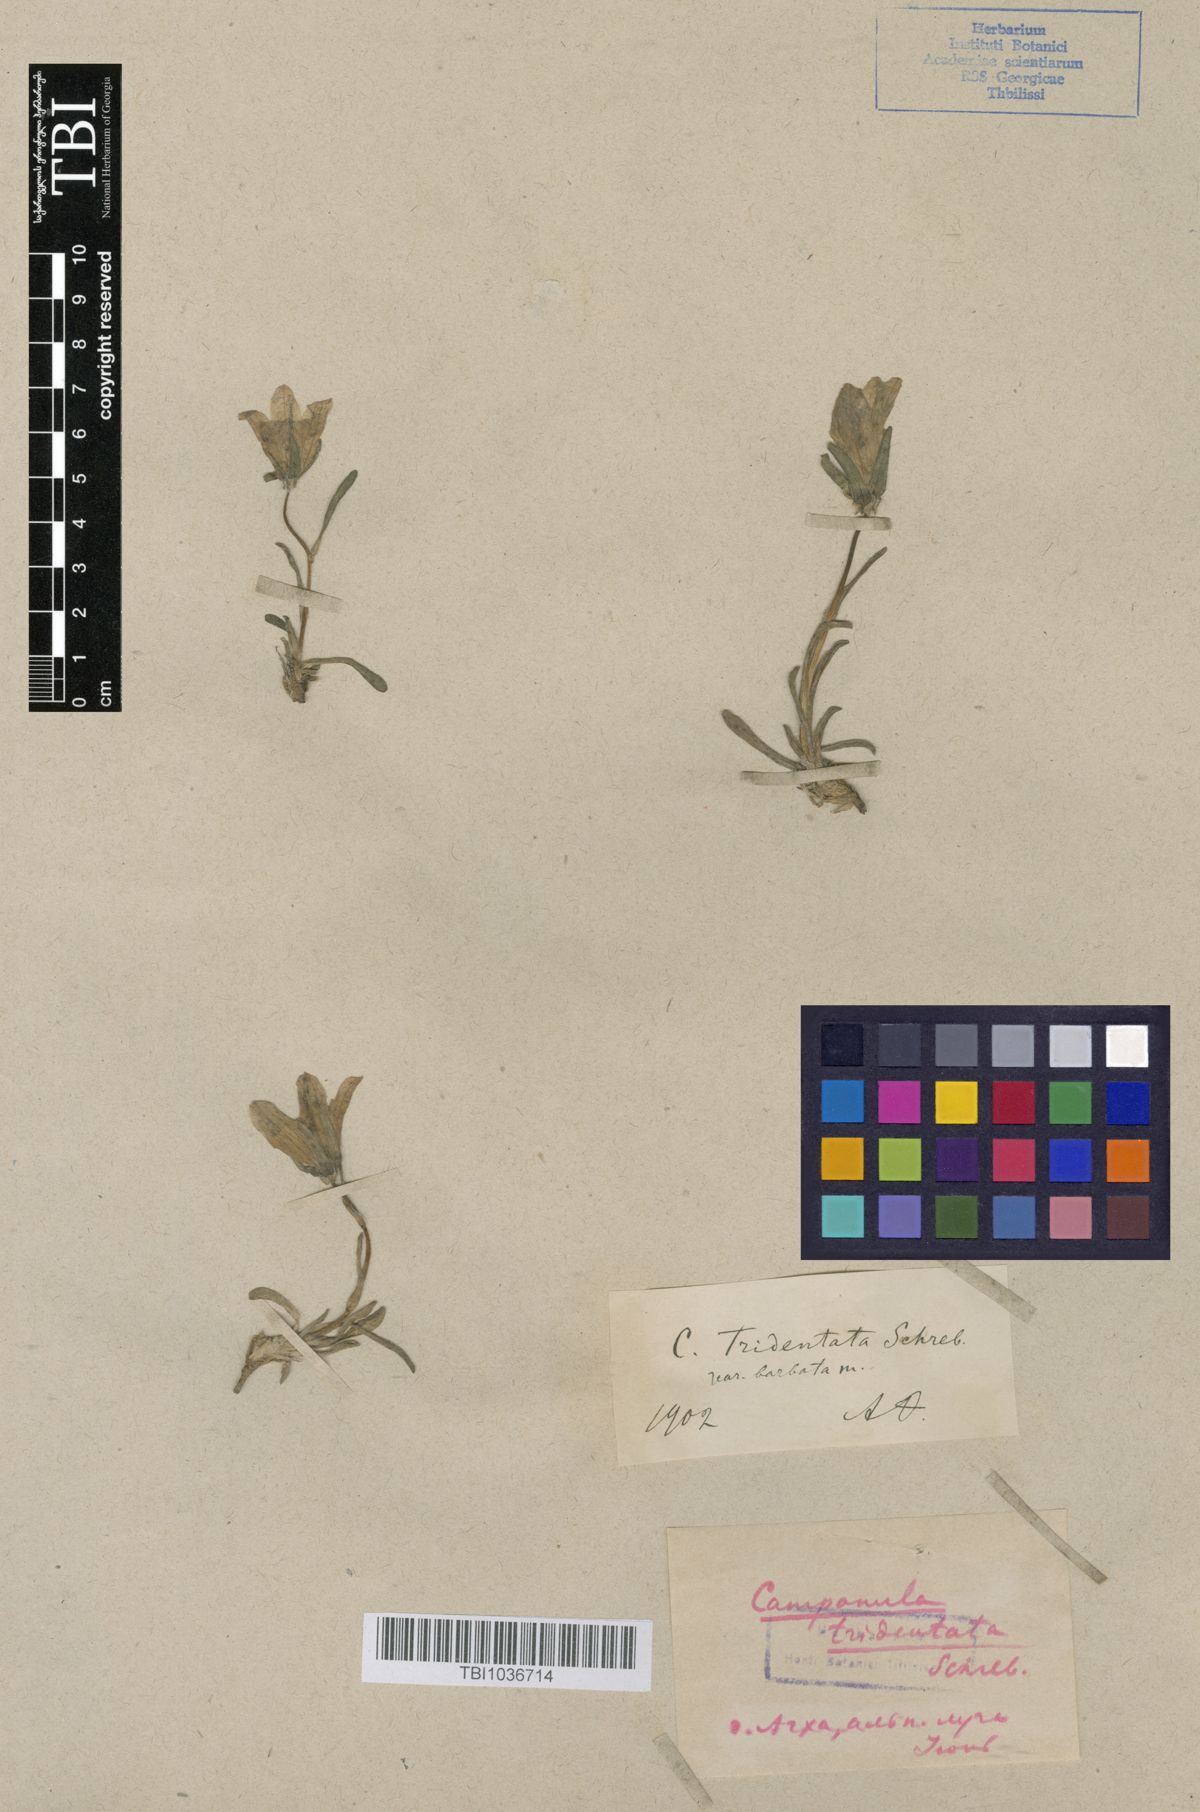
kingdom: Plantae
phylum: Tracheophyta
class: Magnoliopsida
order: Asterales
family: Campanulaceae
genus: Campanula
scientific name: Campanula tridentata
